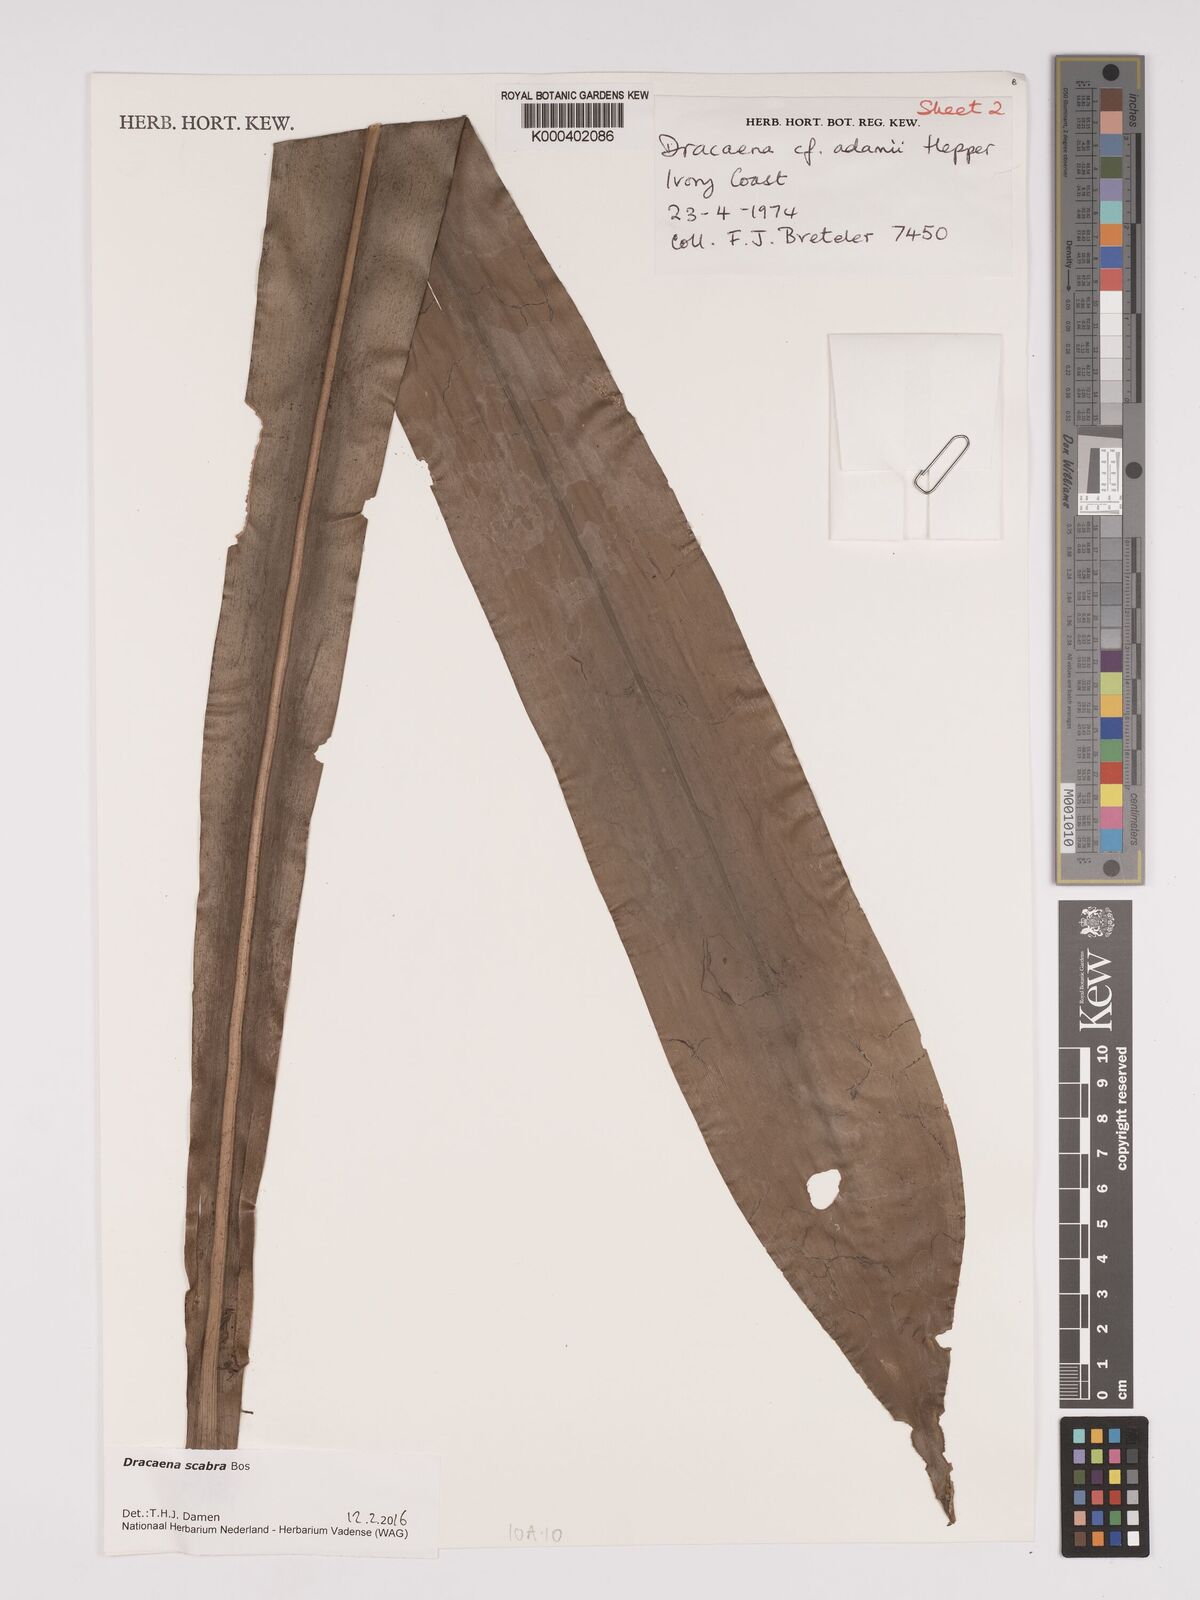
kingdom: Plantae
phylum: Tracheophyta
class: Liliopsida
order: Asparagales
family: Asparagaceae
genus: Dracaena
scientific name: Dracaena scabra
